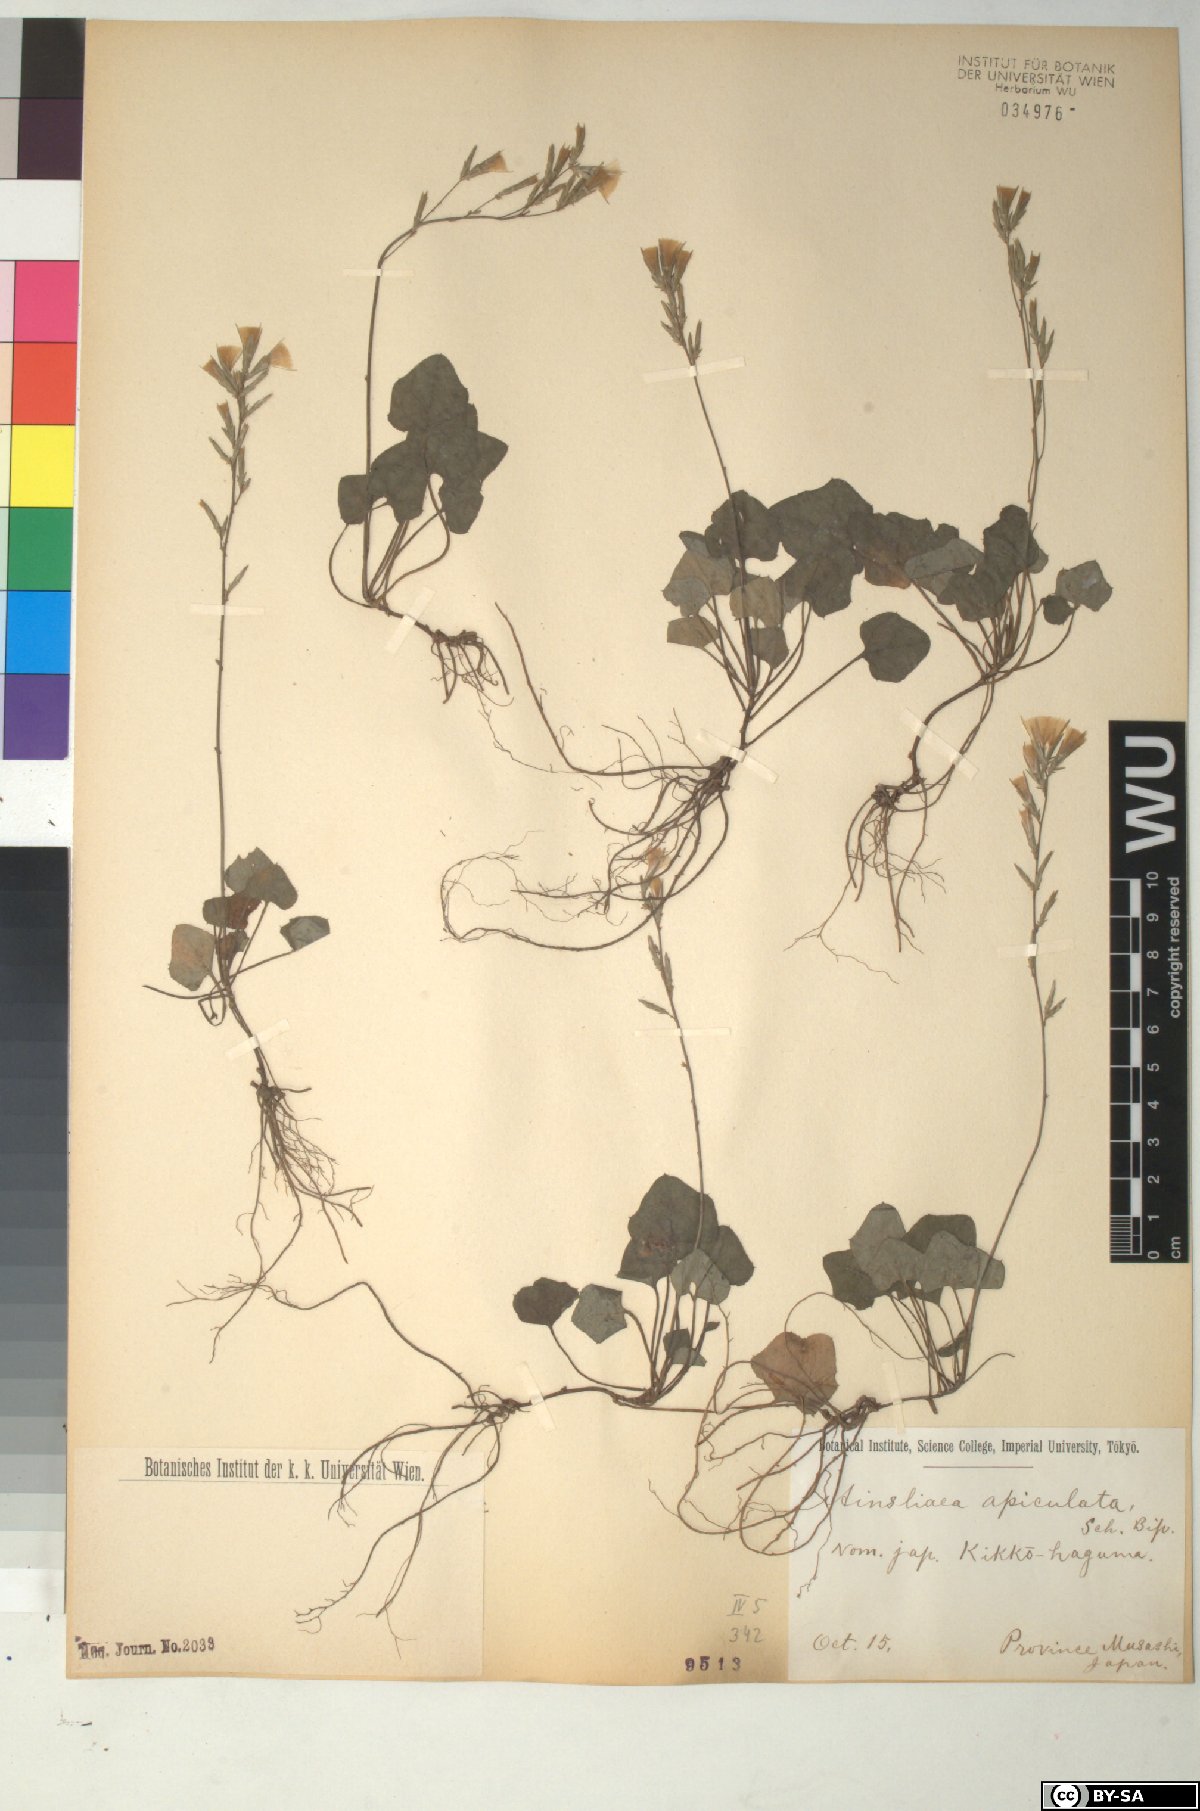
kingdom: Plantae
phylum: Tracheophyta
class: Magnoliopsida
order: Asterales
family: Asteraceae
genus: Ainsliaea
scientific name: Ainsliaea apiculata
